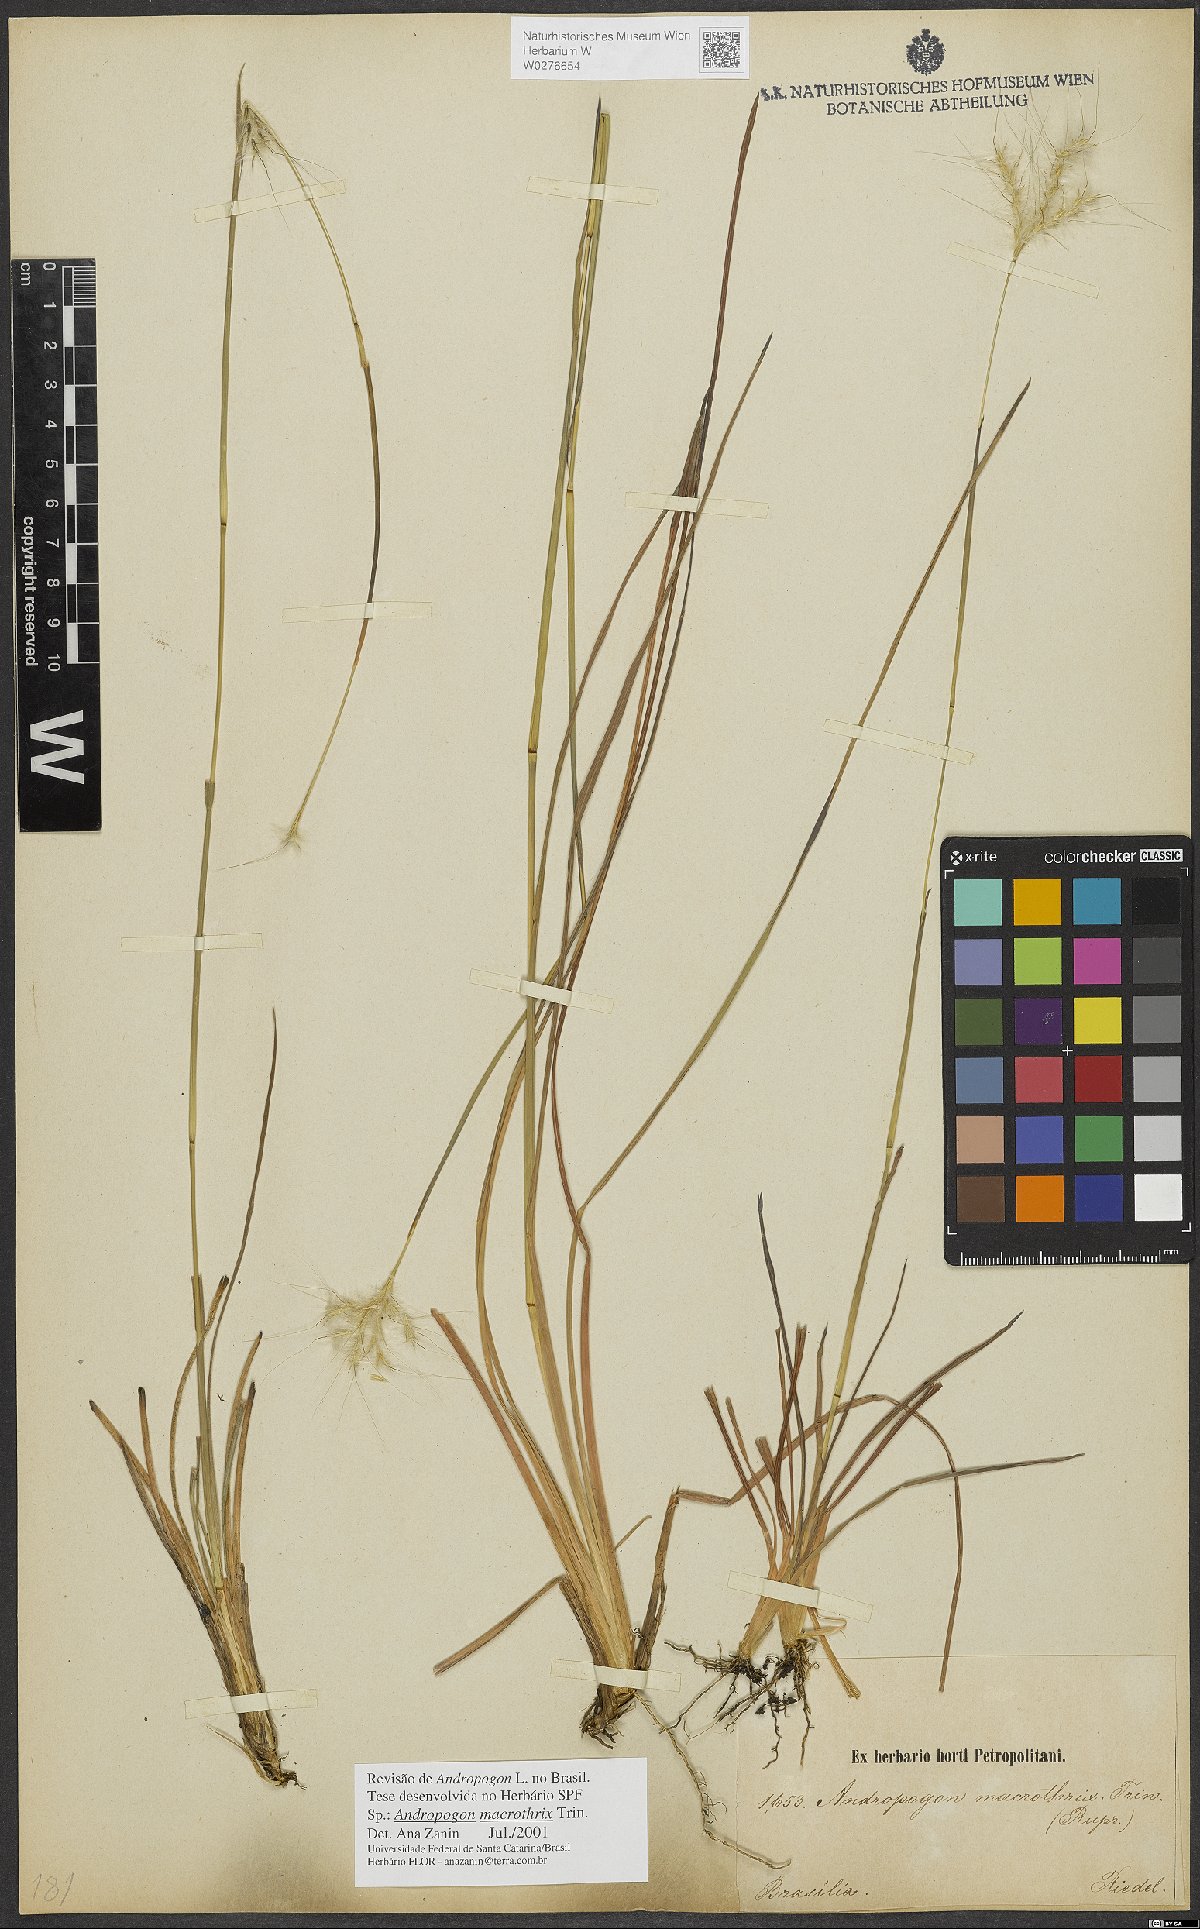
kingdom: Plantae
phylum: Tracheophyta
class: Liliopsida
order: Poales
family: Poaceae
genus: Andropogon
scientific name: Andropogon macrothrix
